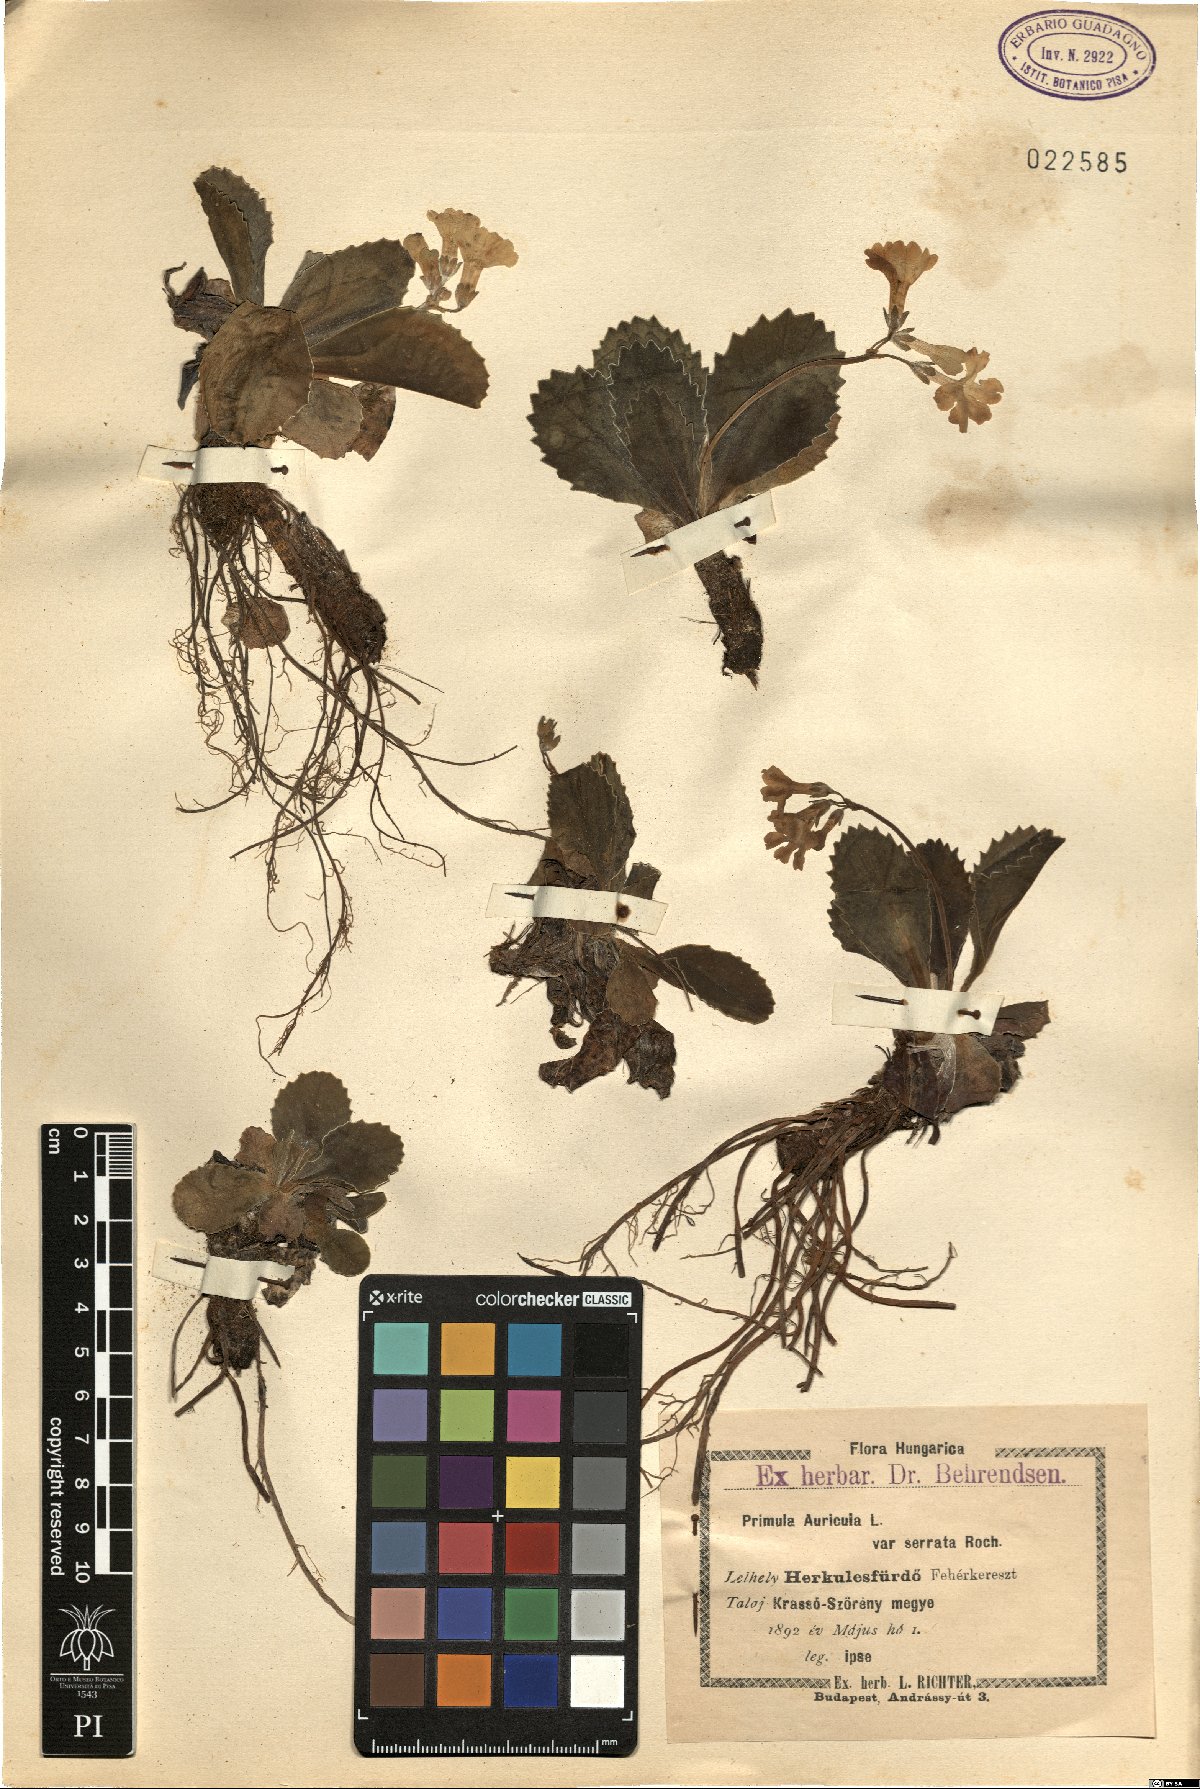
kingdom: Plantae
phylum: Tracheophyta
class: Magnoliopsida
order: Ericales
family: Primulaceae
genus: Primula
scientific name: Primula auricula
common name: Auricula
